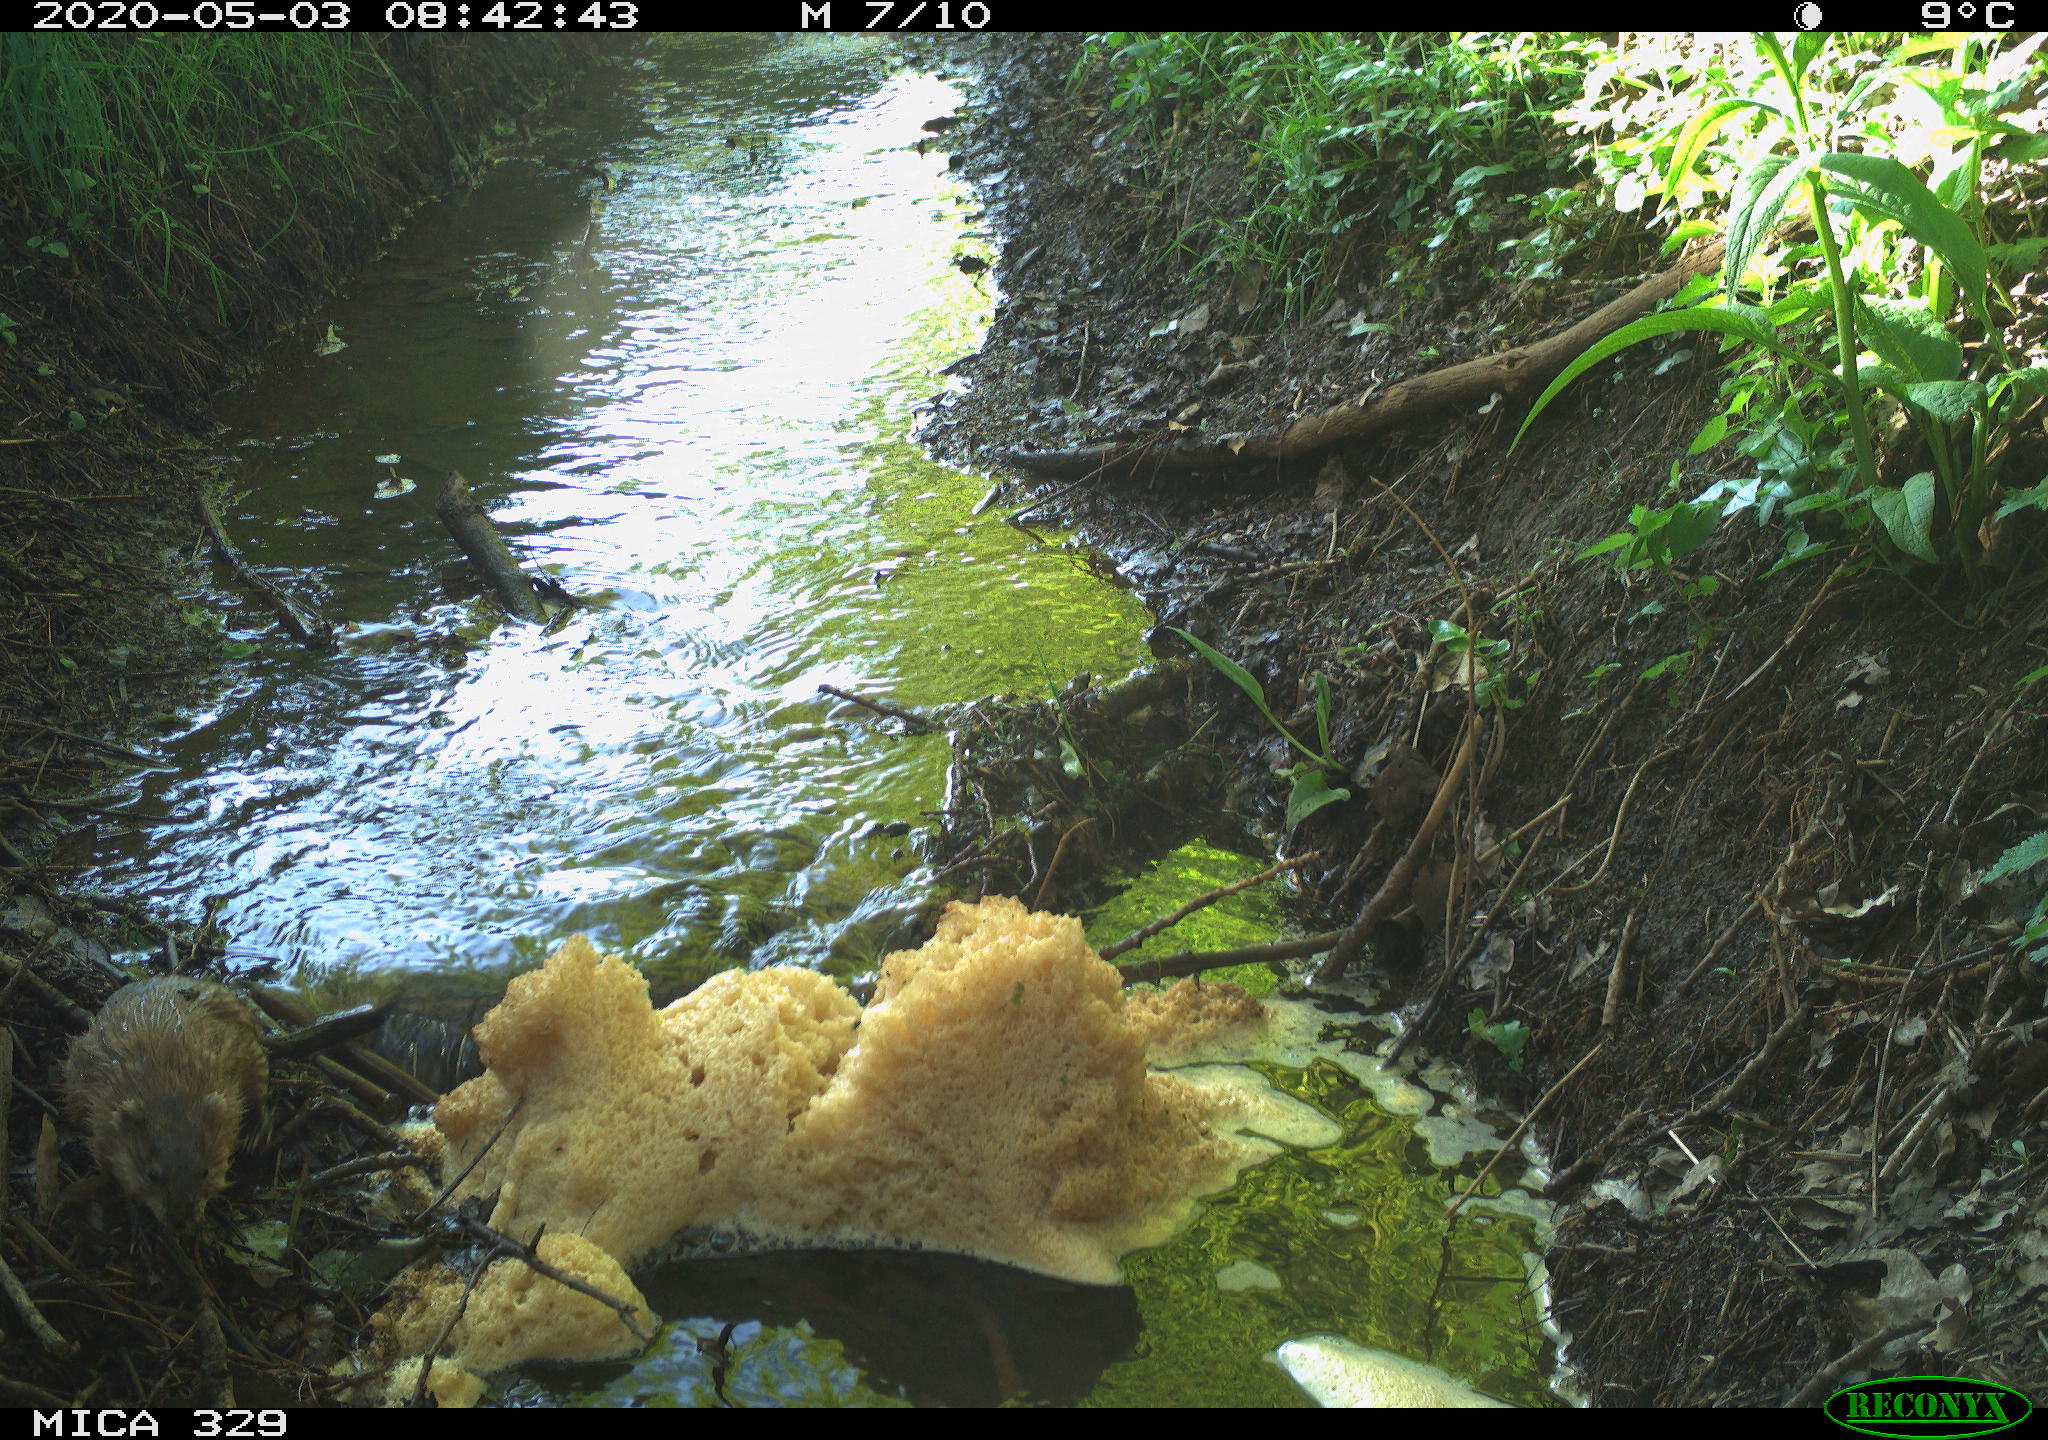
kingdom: Animalia
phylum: Chordata
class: Mammalia
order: Rodentia
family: Cricetidae
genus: Ondatra
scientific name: Ondatra zibethicus
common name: Muskrat
